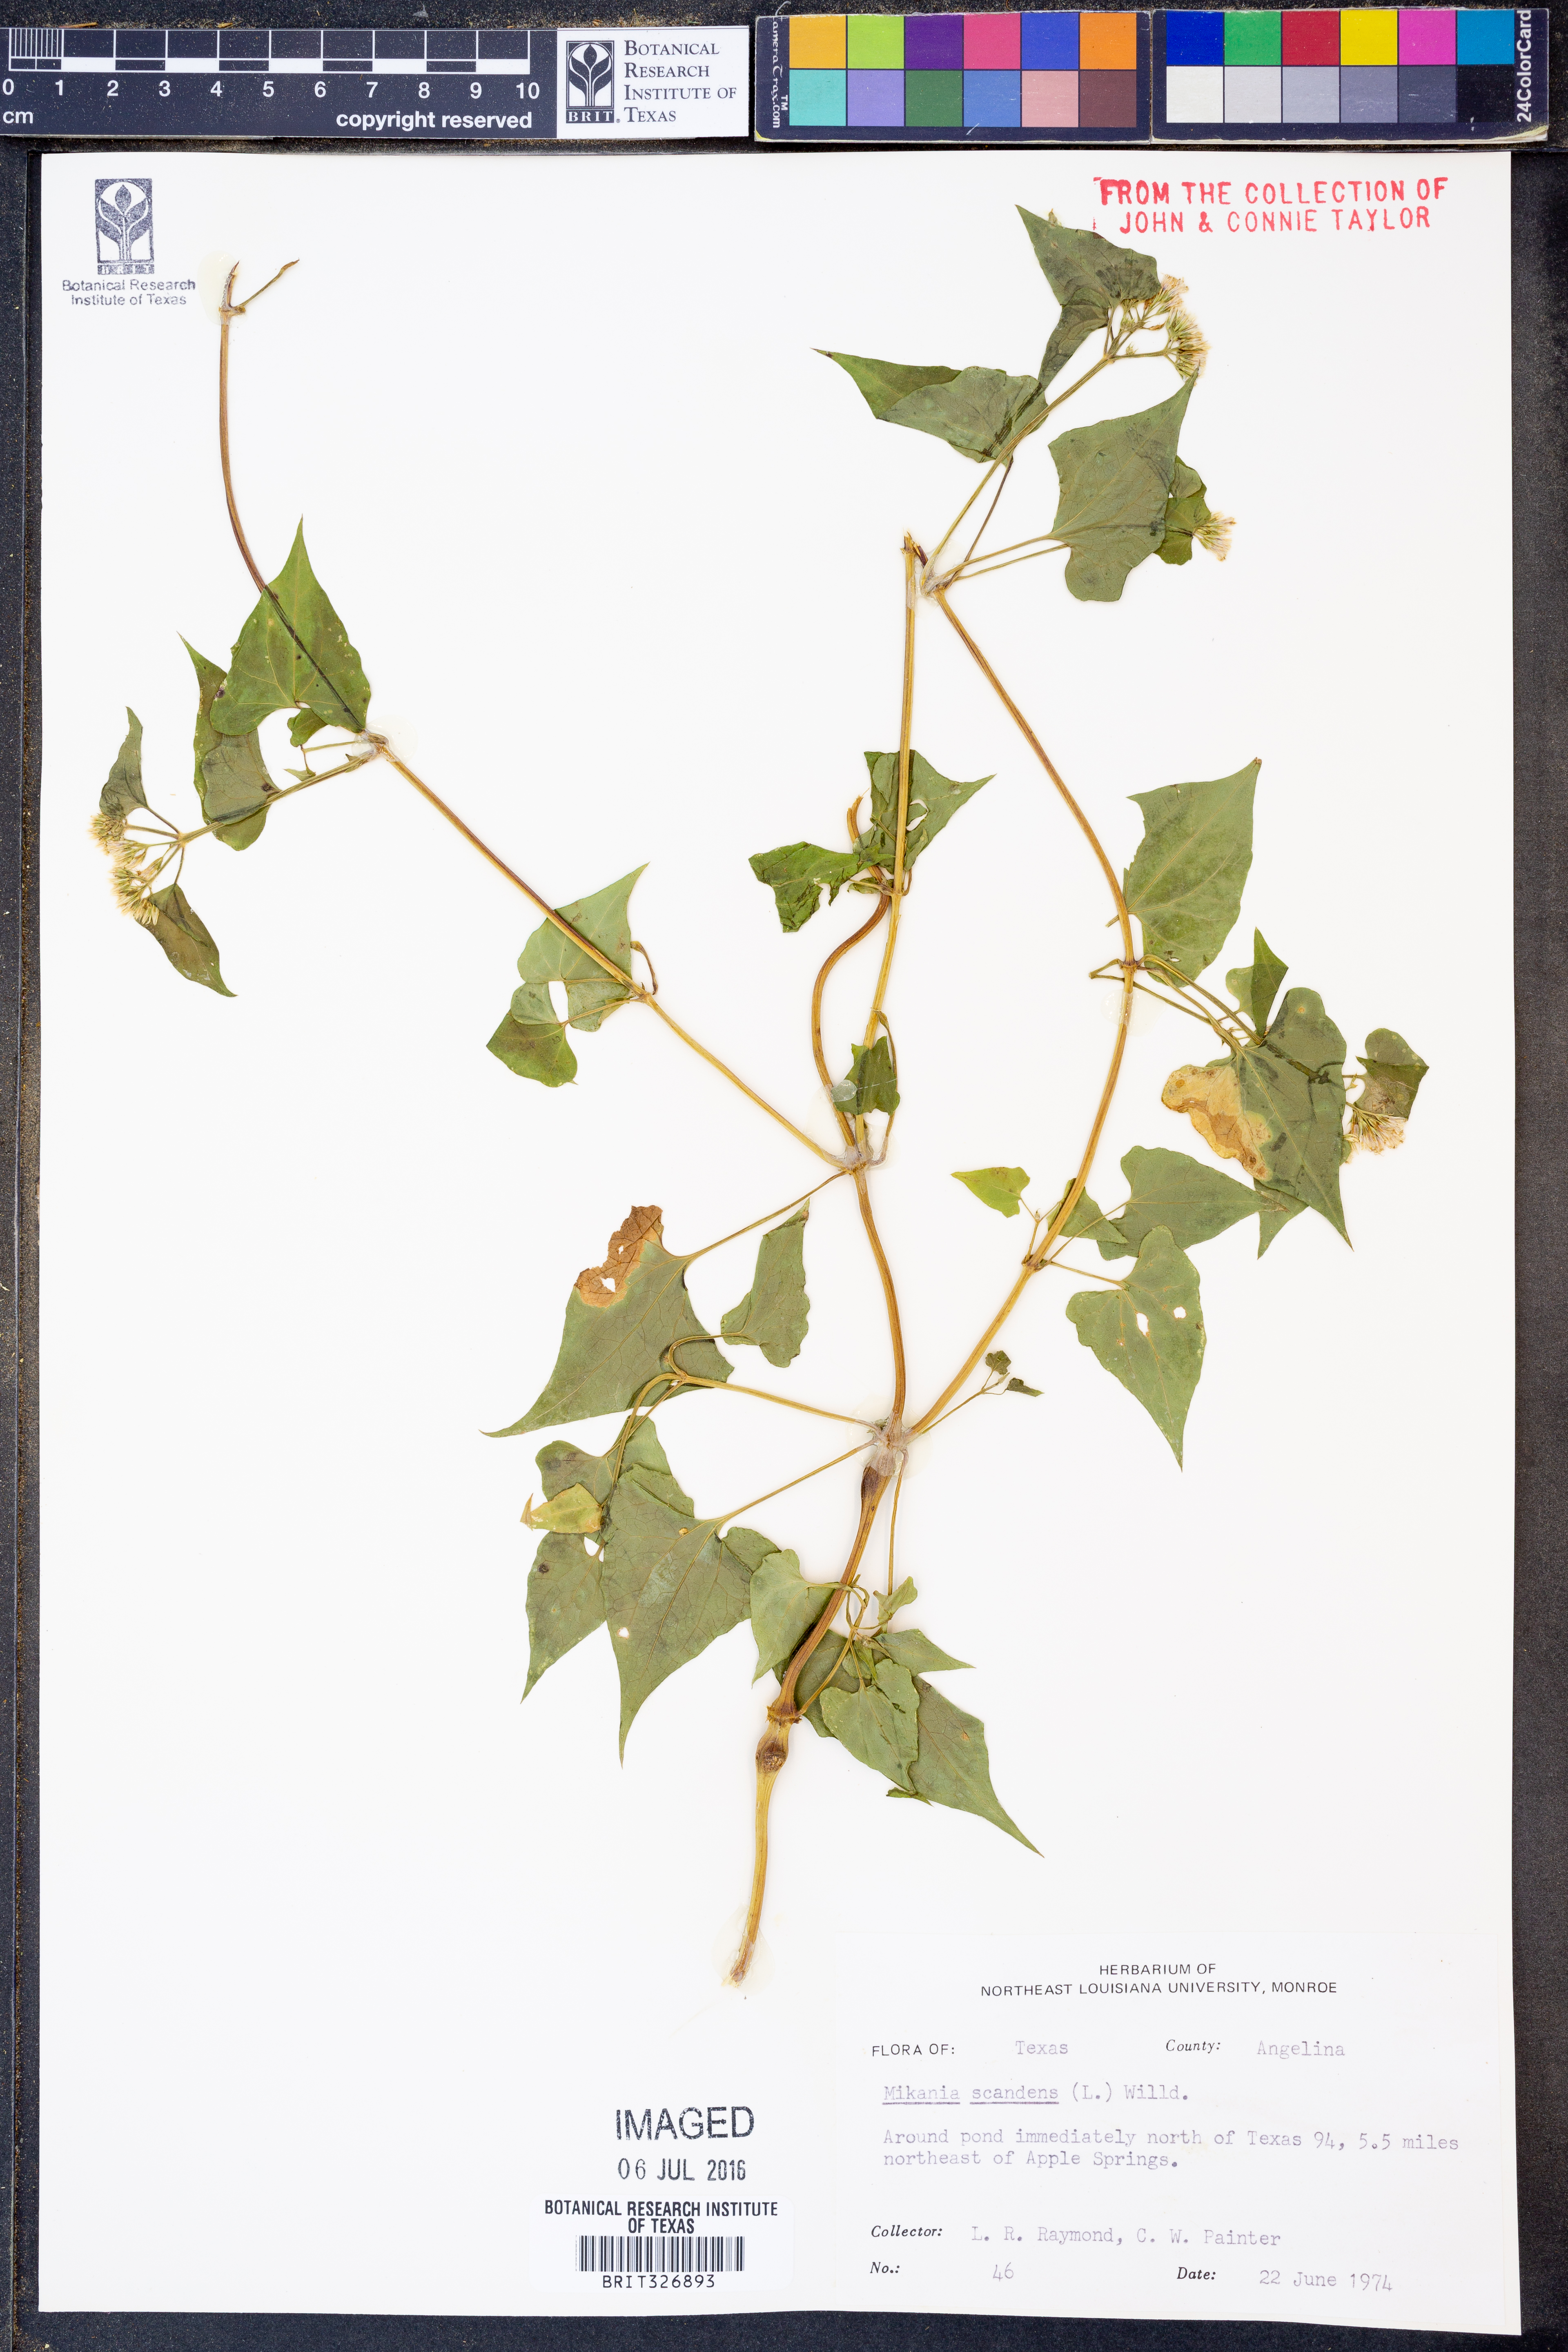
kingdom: Plantae
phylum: Tracheophyta
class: Magnoliopsida
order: Asterales
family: Asteraceae
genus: Mikania
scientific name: Mikania scandens
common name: Climbing hempvine
